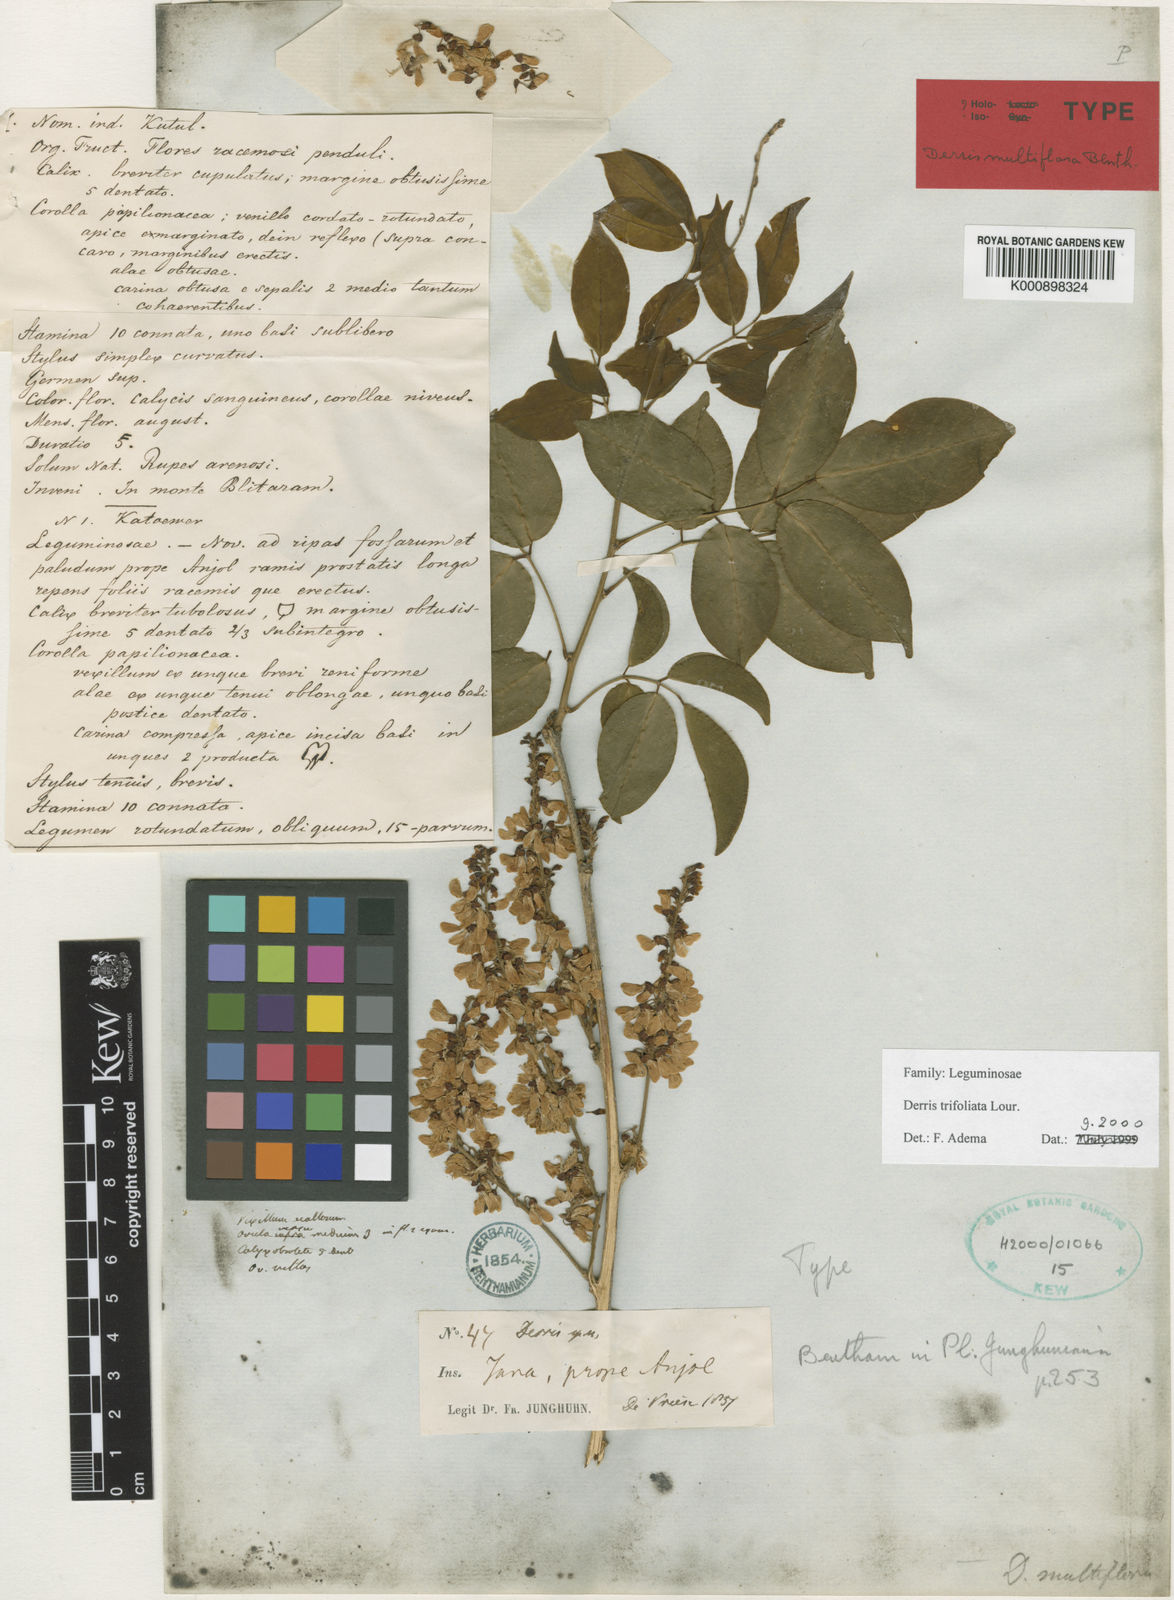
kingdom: Plantae
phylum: Tracheophyta
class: Magnoliopsida
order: Fabales
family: Fabaceae
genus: Derris
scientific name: Derris trifoliata
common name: Three-leaf derris
